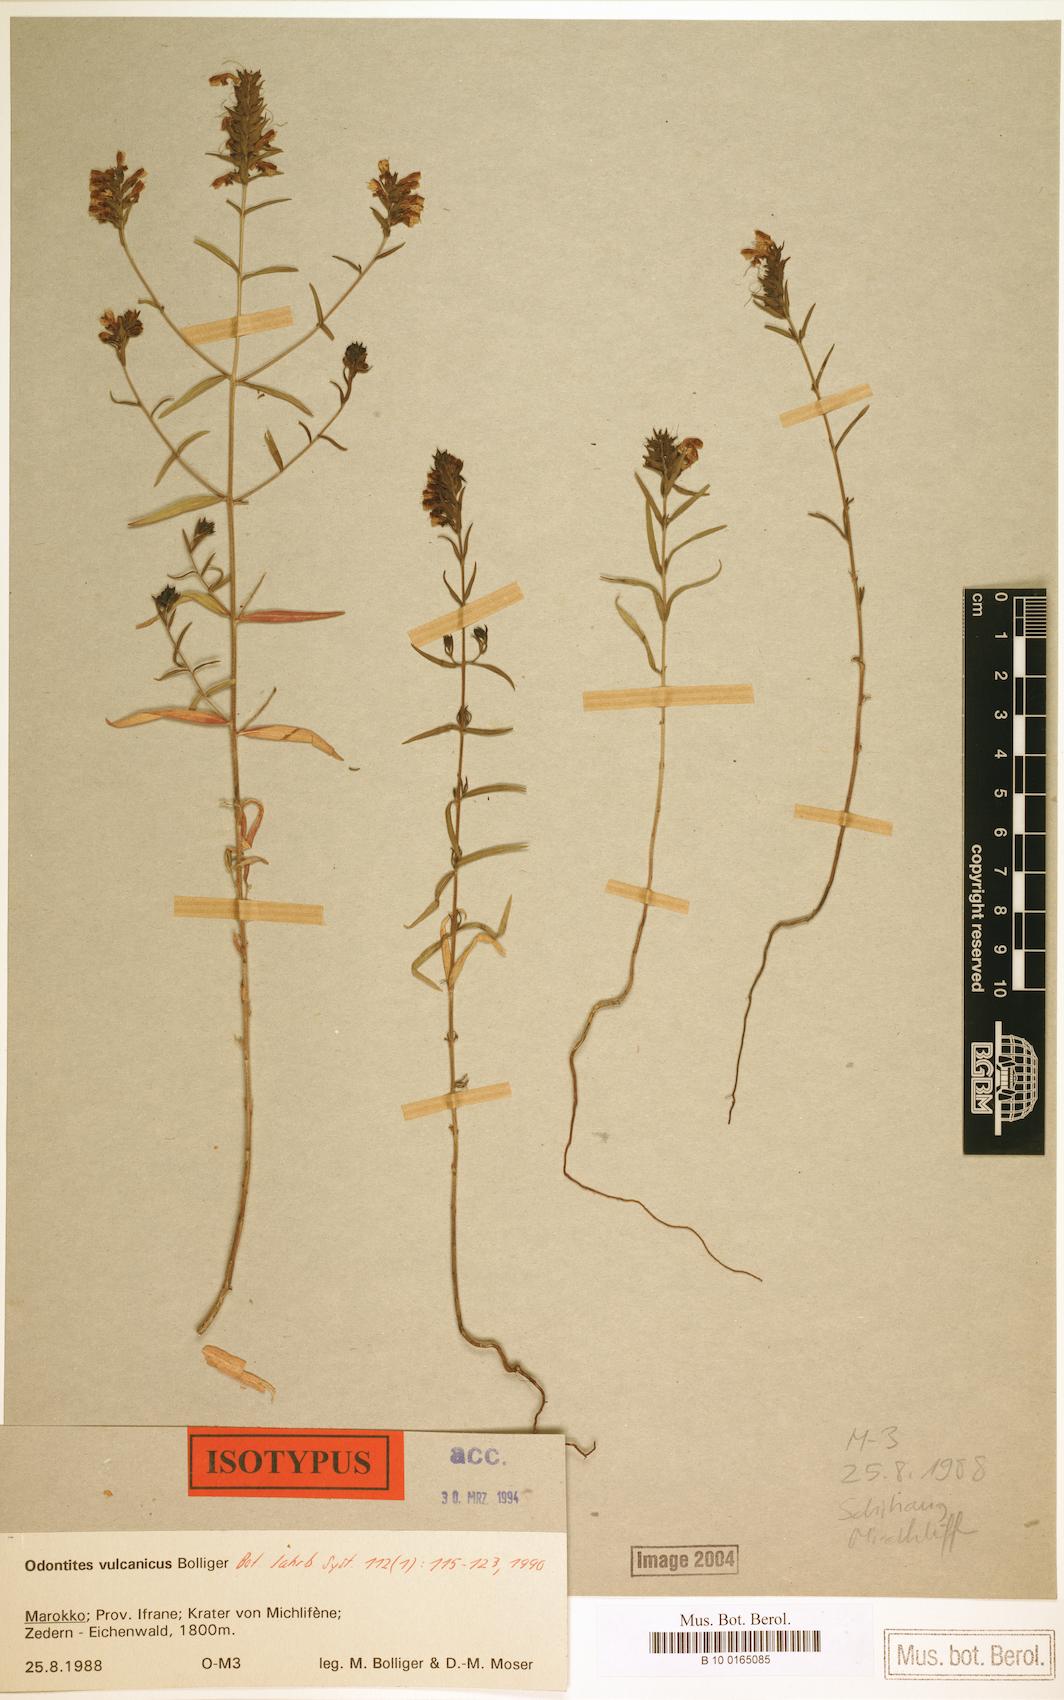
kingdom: Plantae
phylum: Tracheophyta
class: Magnoliopsida
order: Lamiales
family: Orobanchaceae
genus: Odontites
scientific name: Odontites vulcanicus
